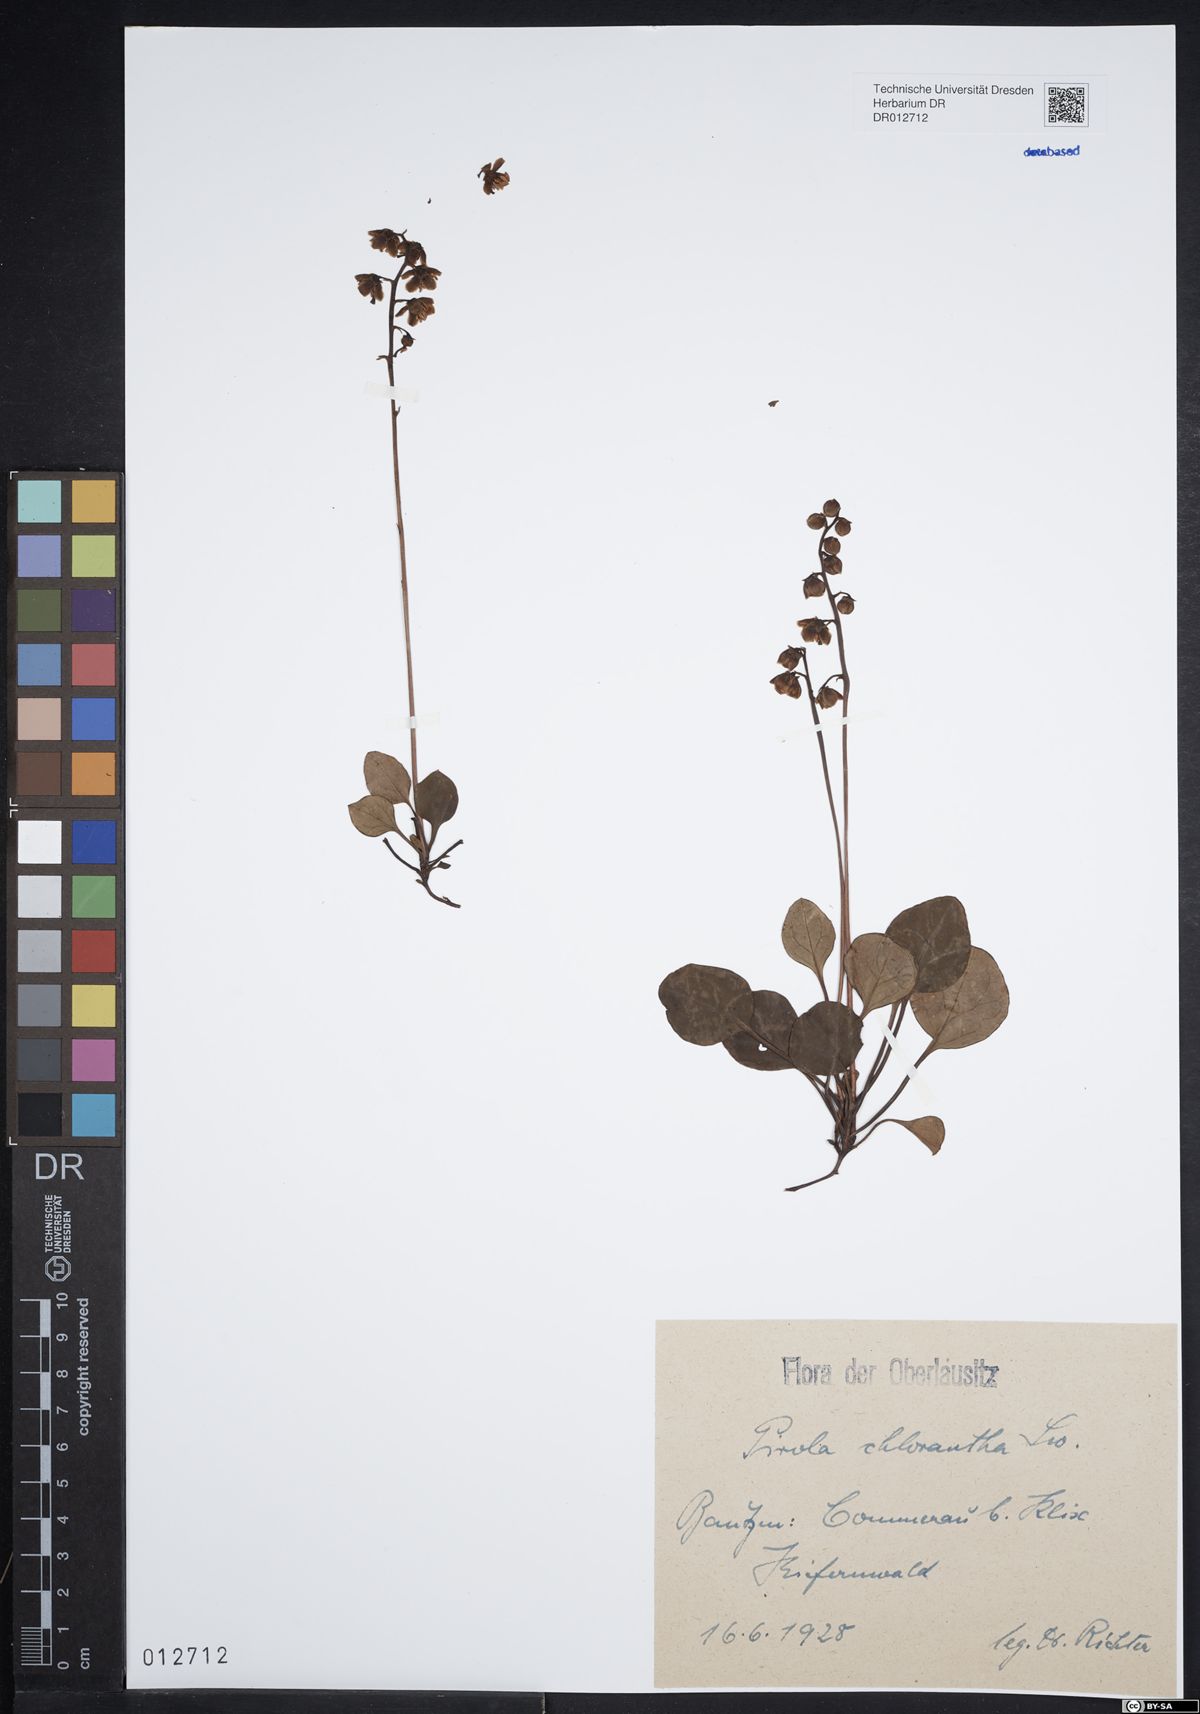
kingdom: Plantae
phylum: Tracheophyta
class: Magnoliopsida
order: Ericales
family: Ericaceae
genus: Pyrola
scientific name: Pyrola chlorantha
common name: Green wintergreen
